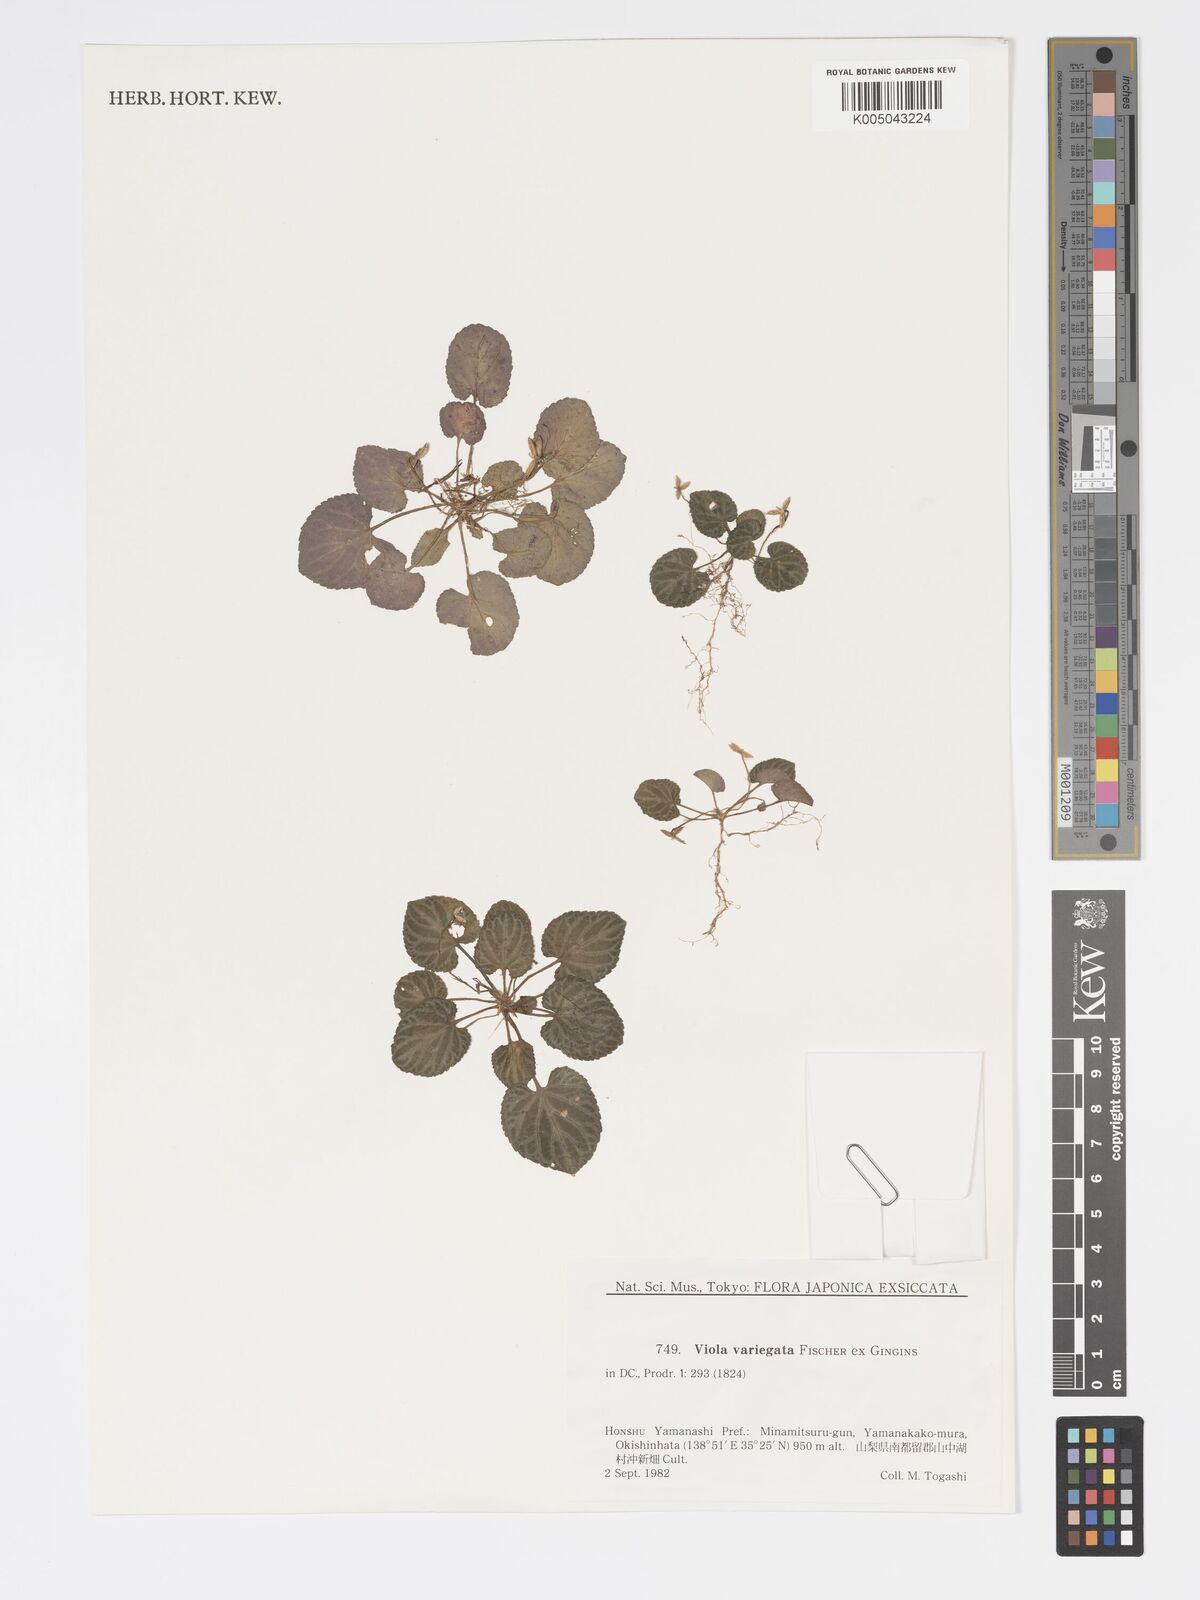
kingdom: Plantae
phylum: Tracheophyta
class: Magnoliopsida
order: Malpighiales
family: Violaceae
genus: Viola
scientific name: Viola vaginata
